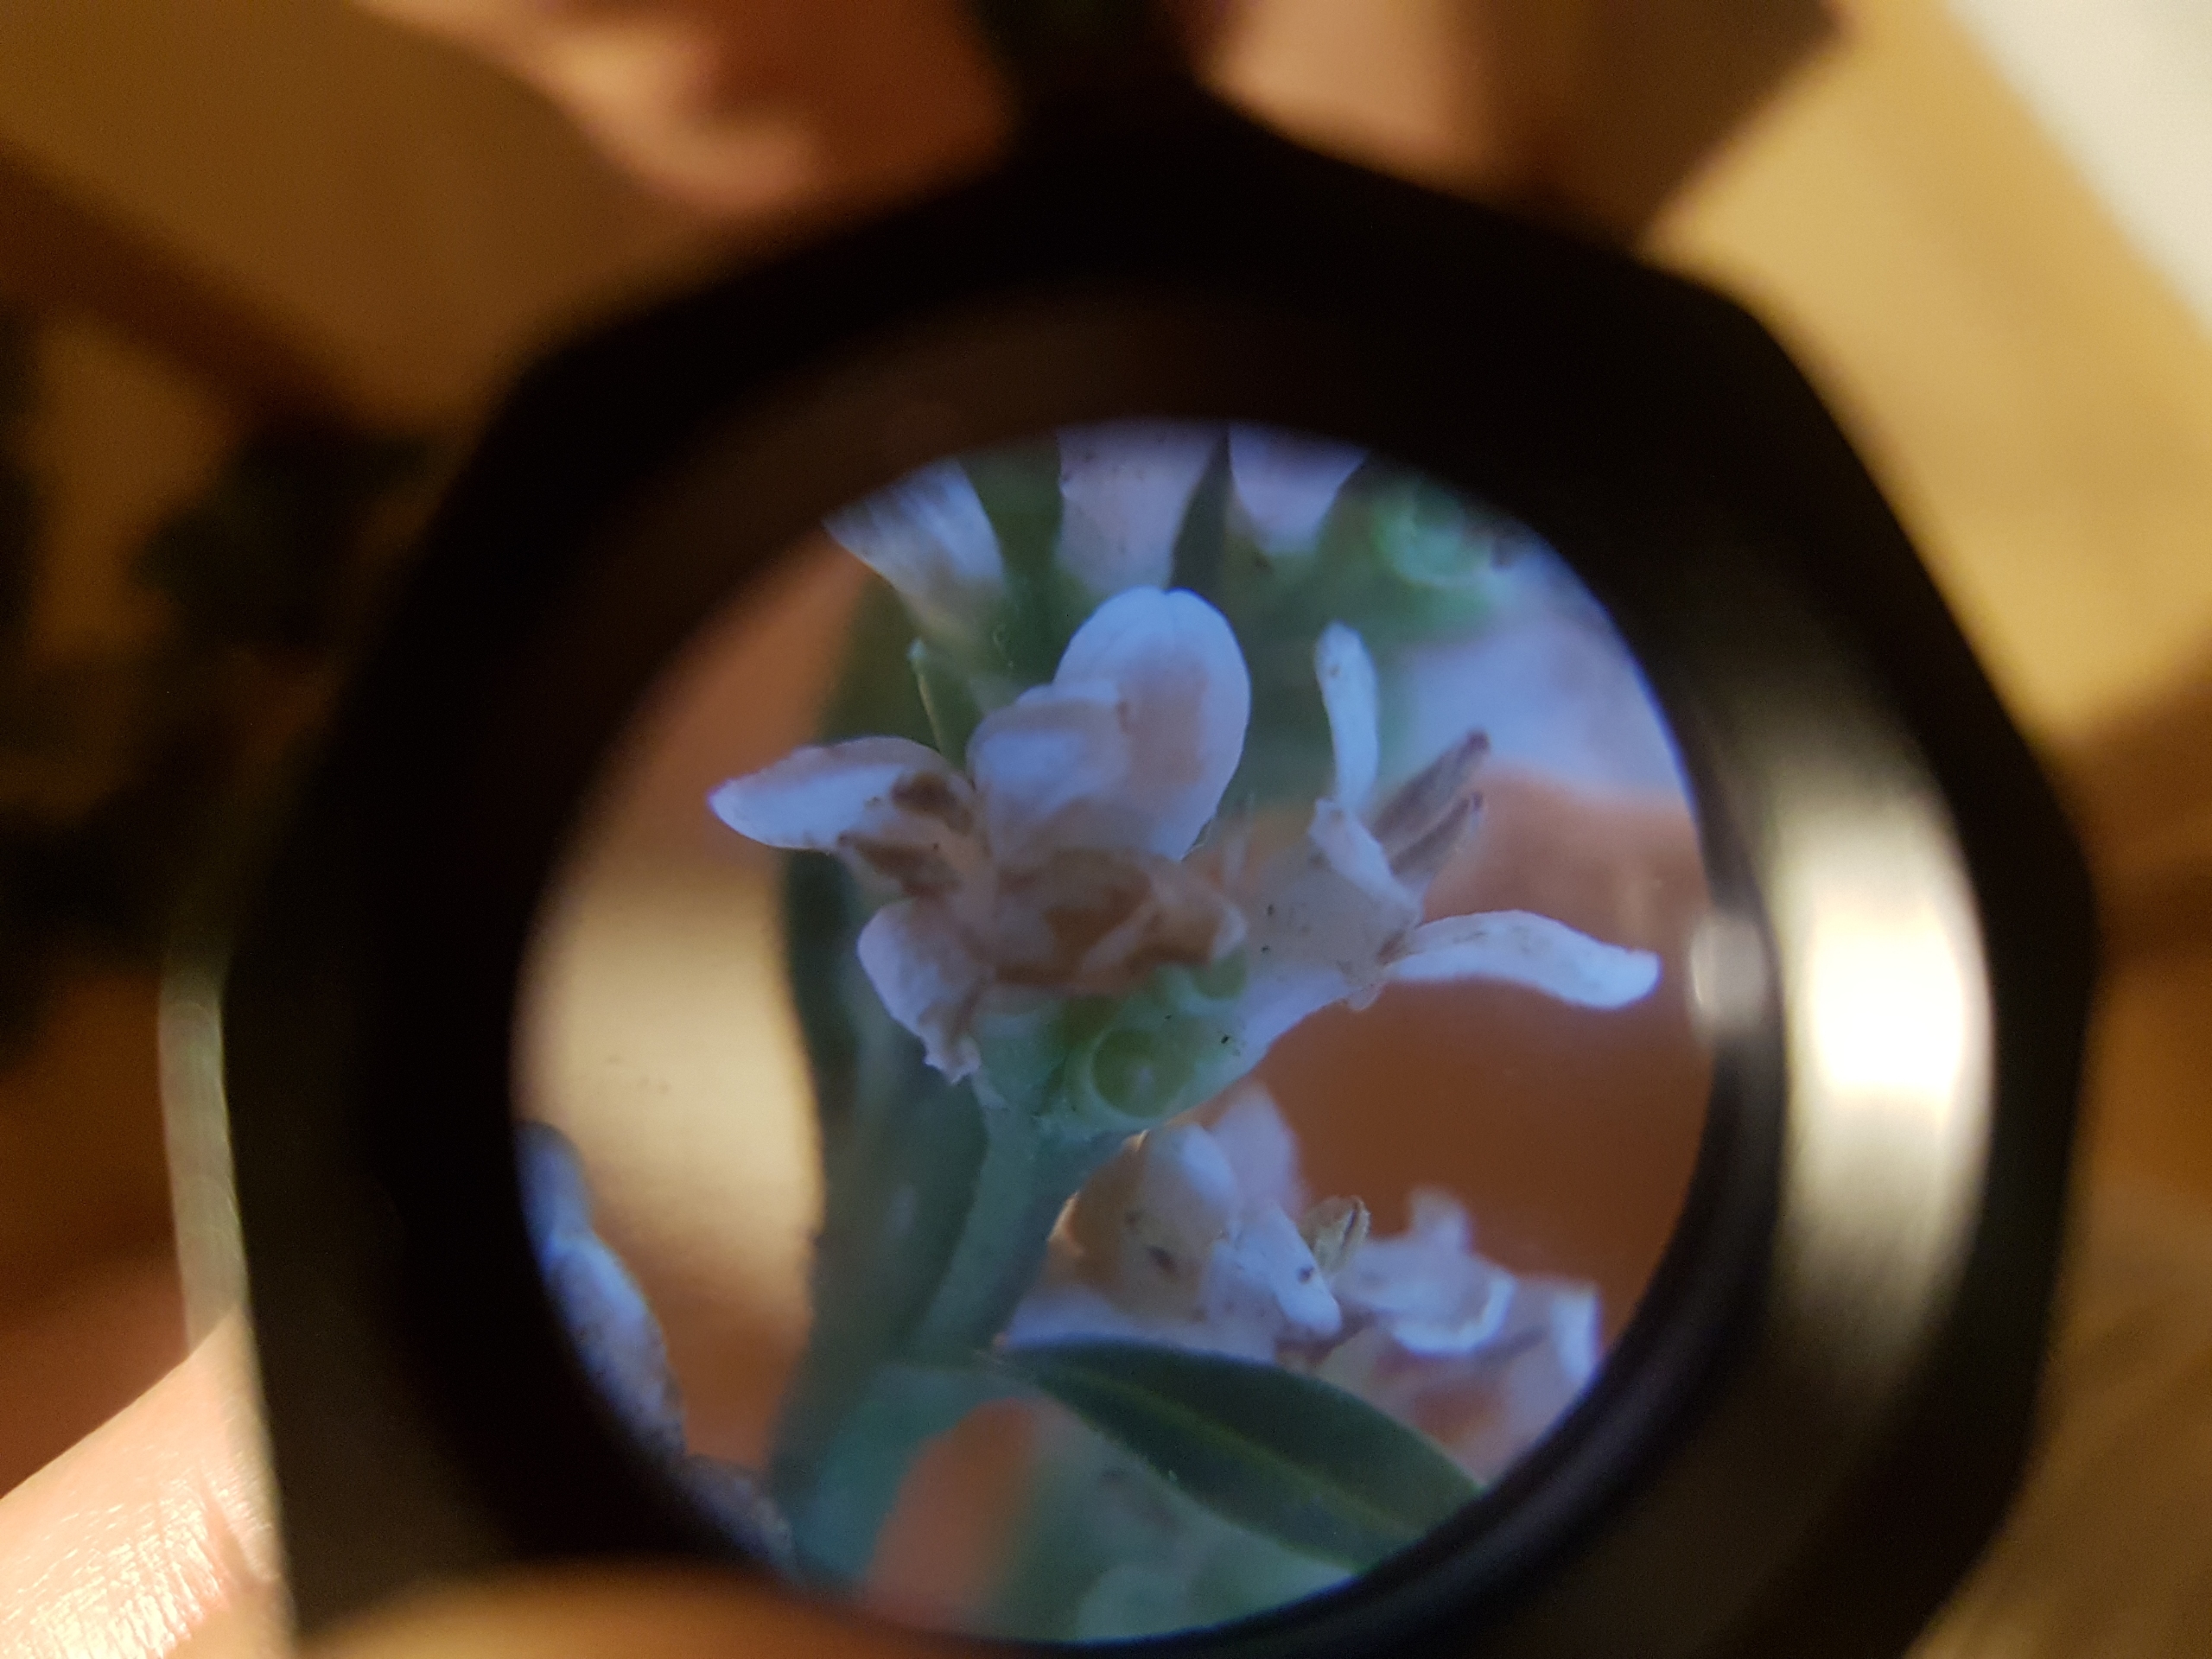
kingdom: Plantae
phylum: Tracheophyta
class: Magnoliopsida
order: Lamiales
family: Oleaceae
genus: Ligustrum
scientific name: Ligustrum vulgare
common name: Liguster
